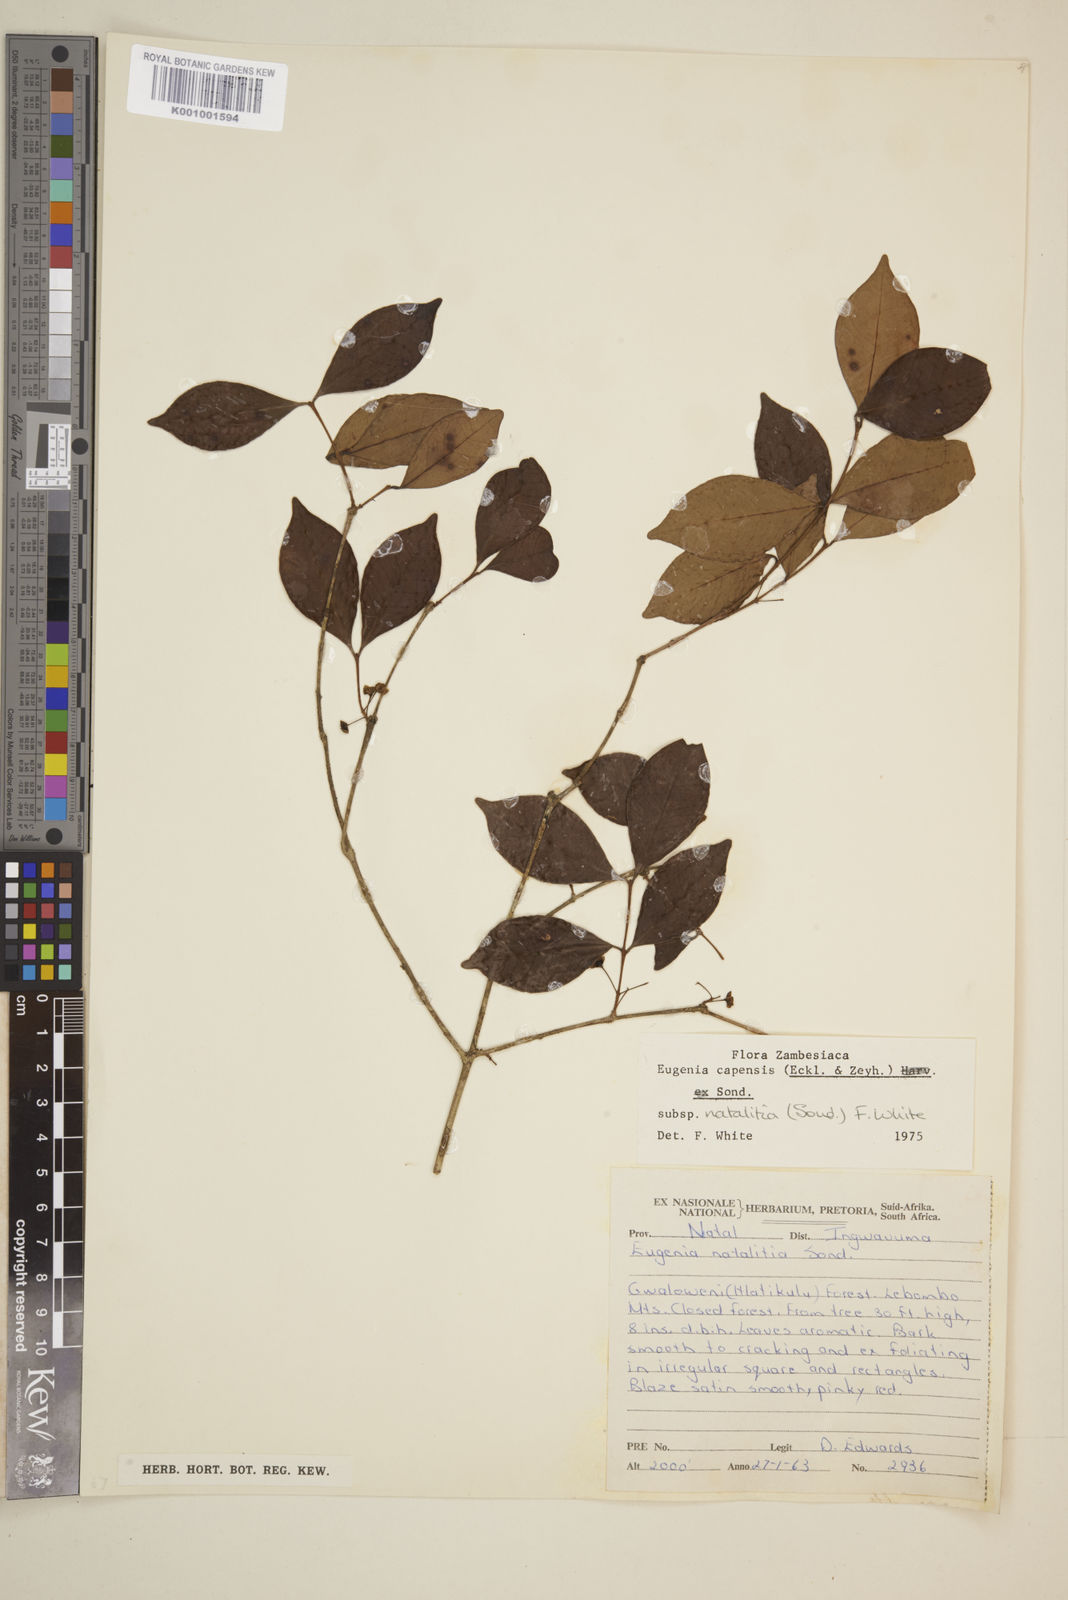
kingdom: Plantae
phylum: Tracheophyta
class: Magnoliopsida
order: Myrtales
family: Myrtaceae
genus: Eugenia
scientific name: Eugenia natalitia
